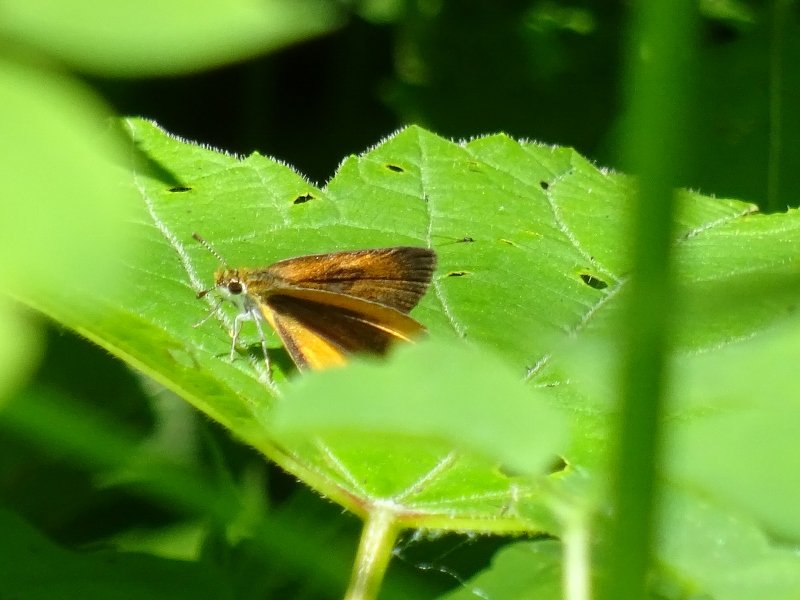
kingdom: Animalia
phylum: Arthropoda
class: Insecta
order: Lepidoptera
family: Hesperiidae
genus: Ancyloxypha
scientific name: Ancyloxypha numitor
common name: Least Skipper
